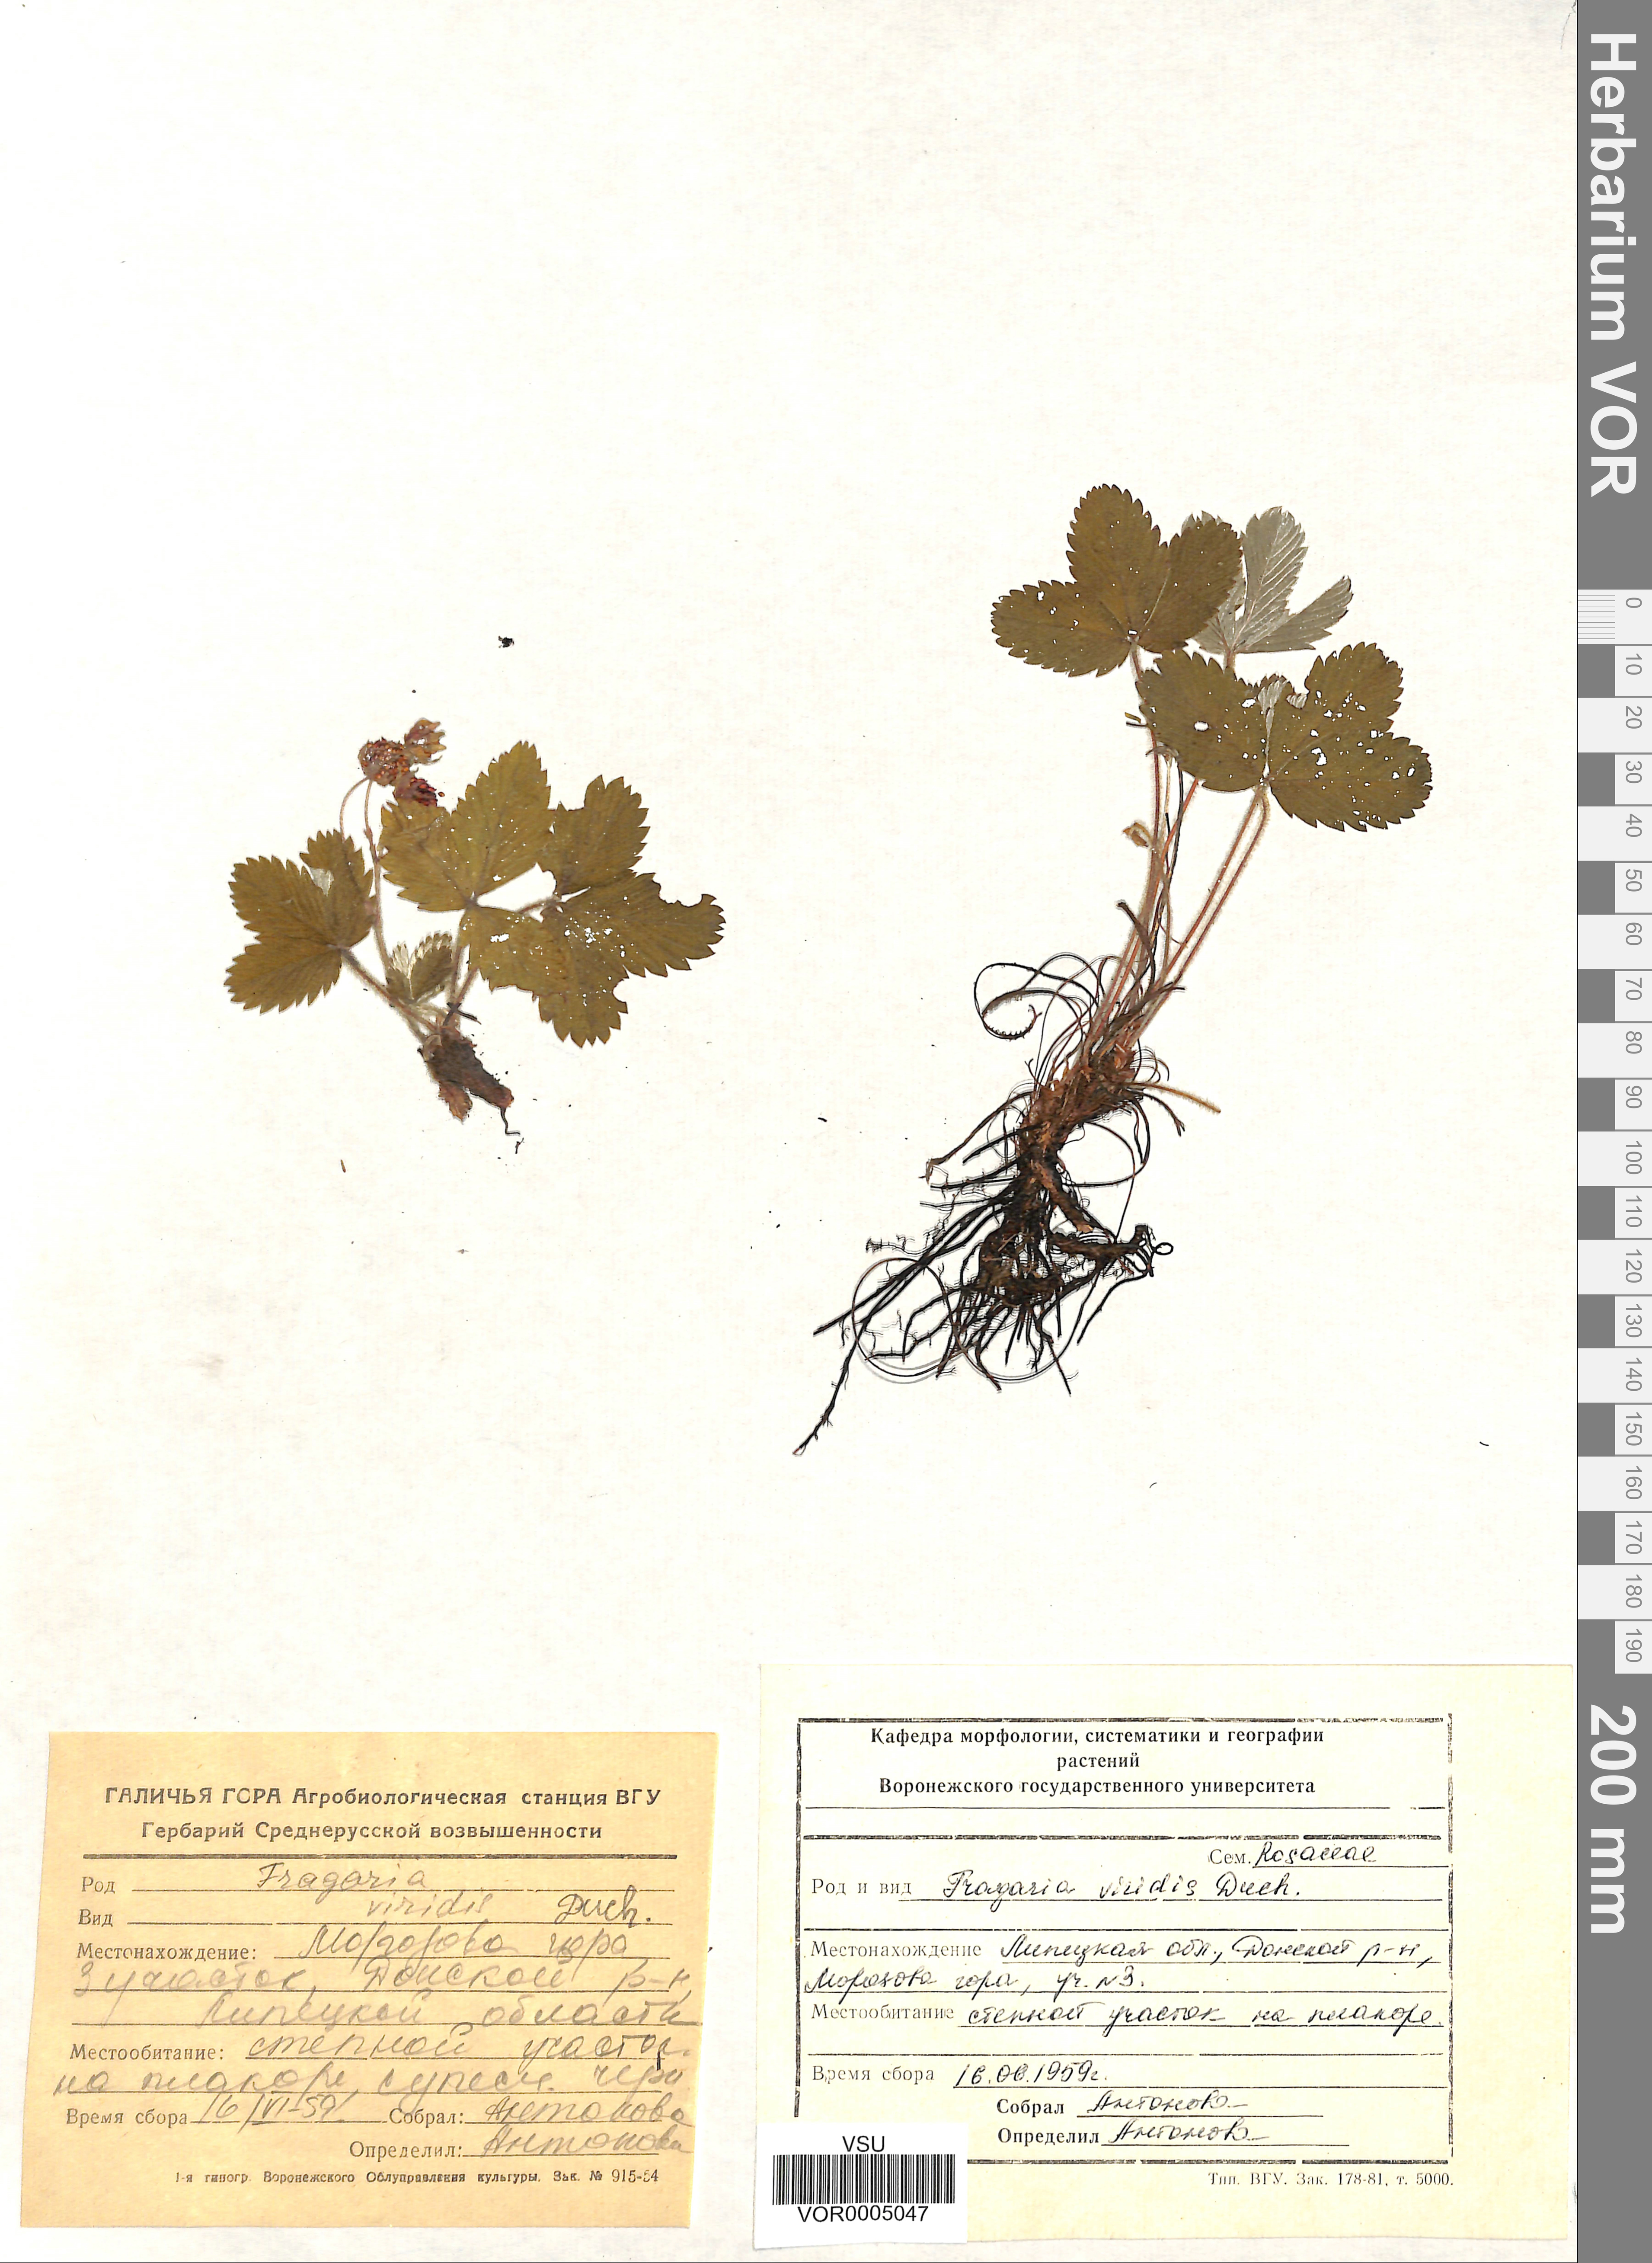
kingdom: Plantae
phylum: Tracheophyta
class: Magnoliopsida
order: Rosales
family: Rosaceae
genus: Fragaria
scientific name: Fragaria viridis
